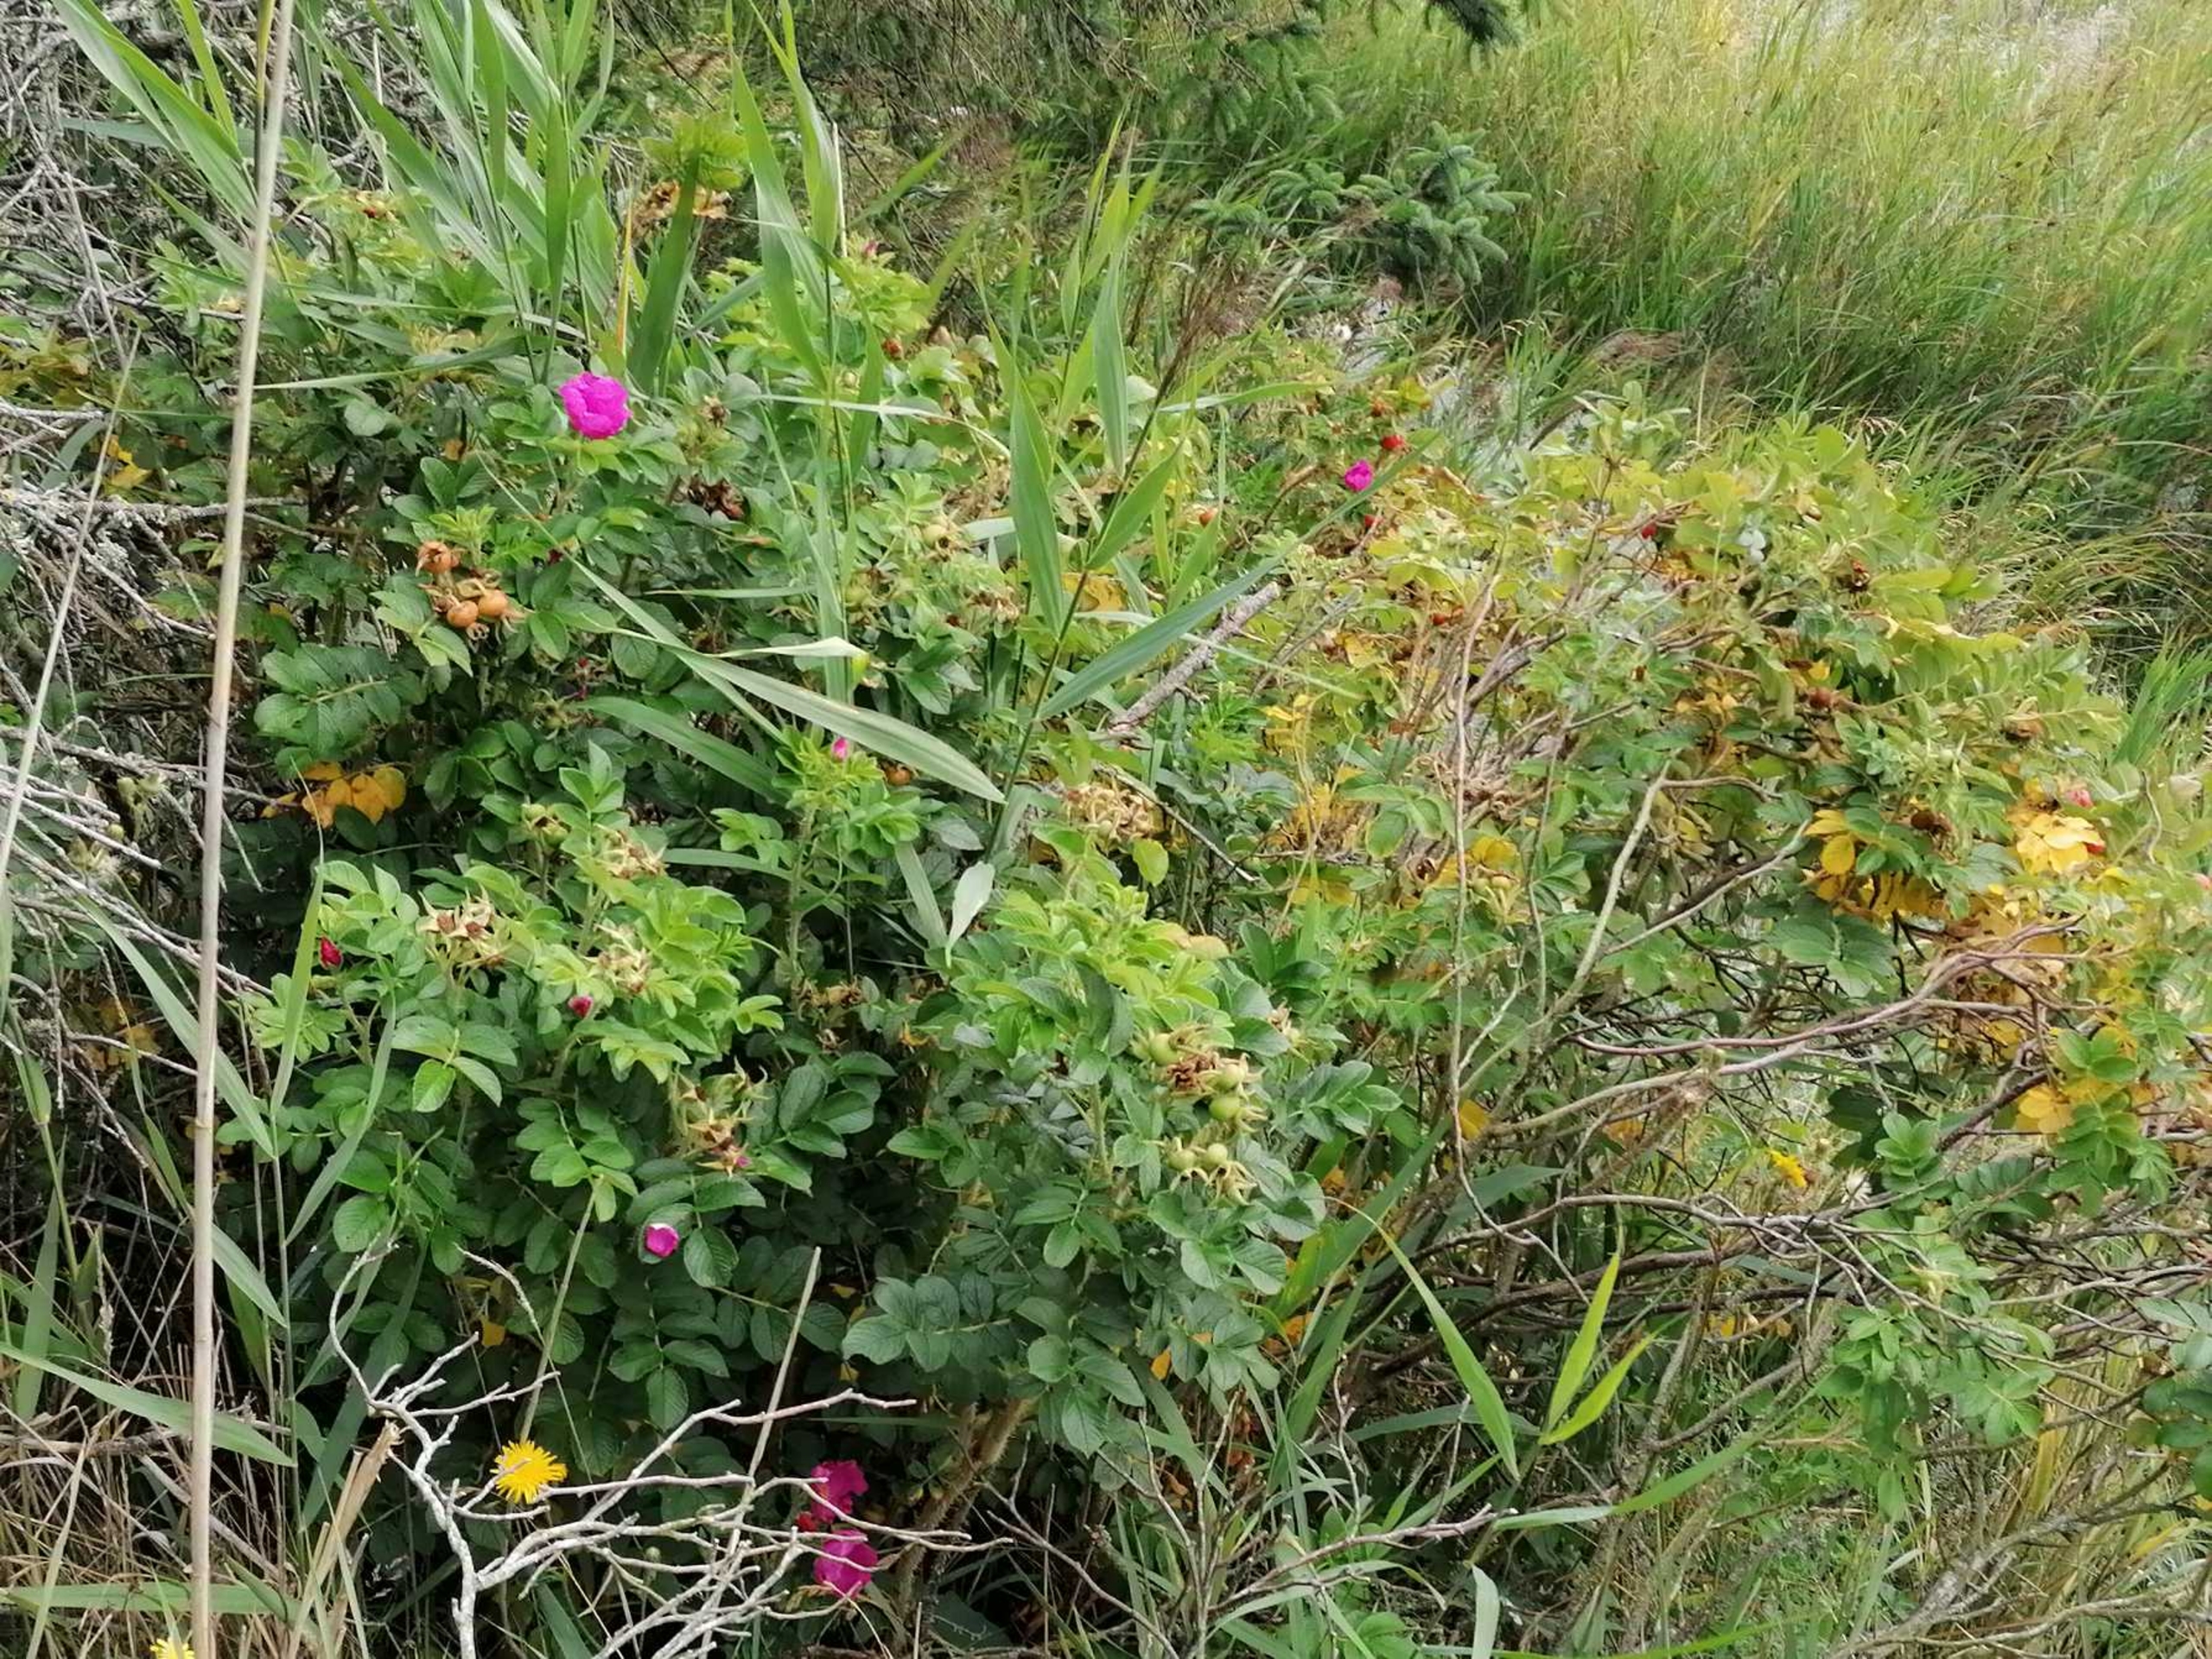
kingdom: Plantae
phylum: Tracheophyta
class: Magnoliopsida
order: Rosales
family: Rosaceae
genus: Rosa
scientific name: Rosa rugosa
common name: Rynket rose
